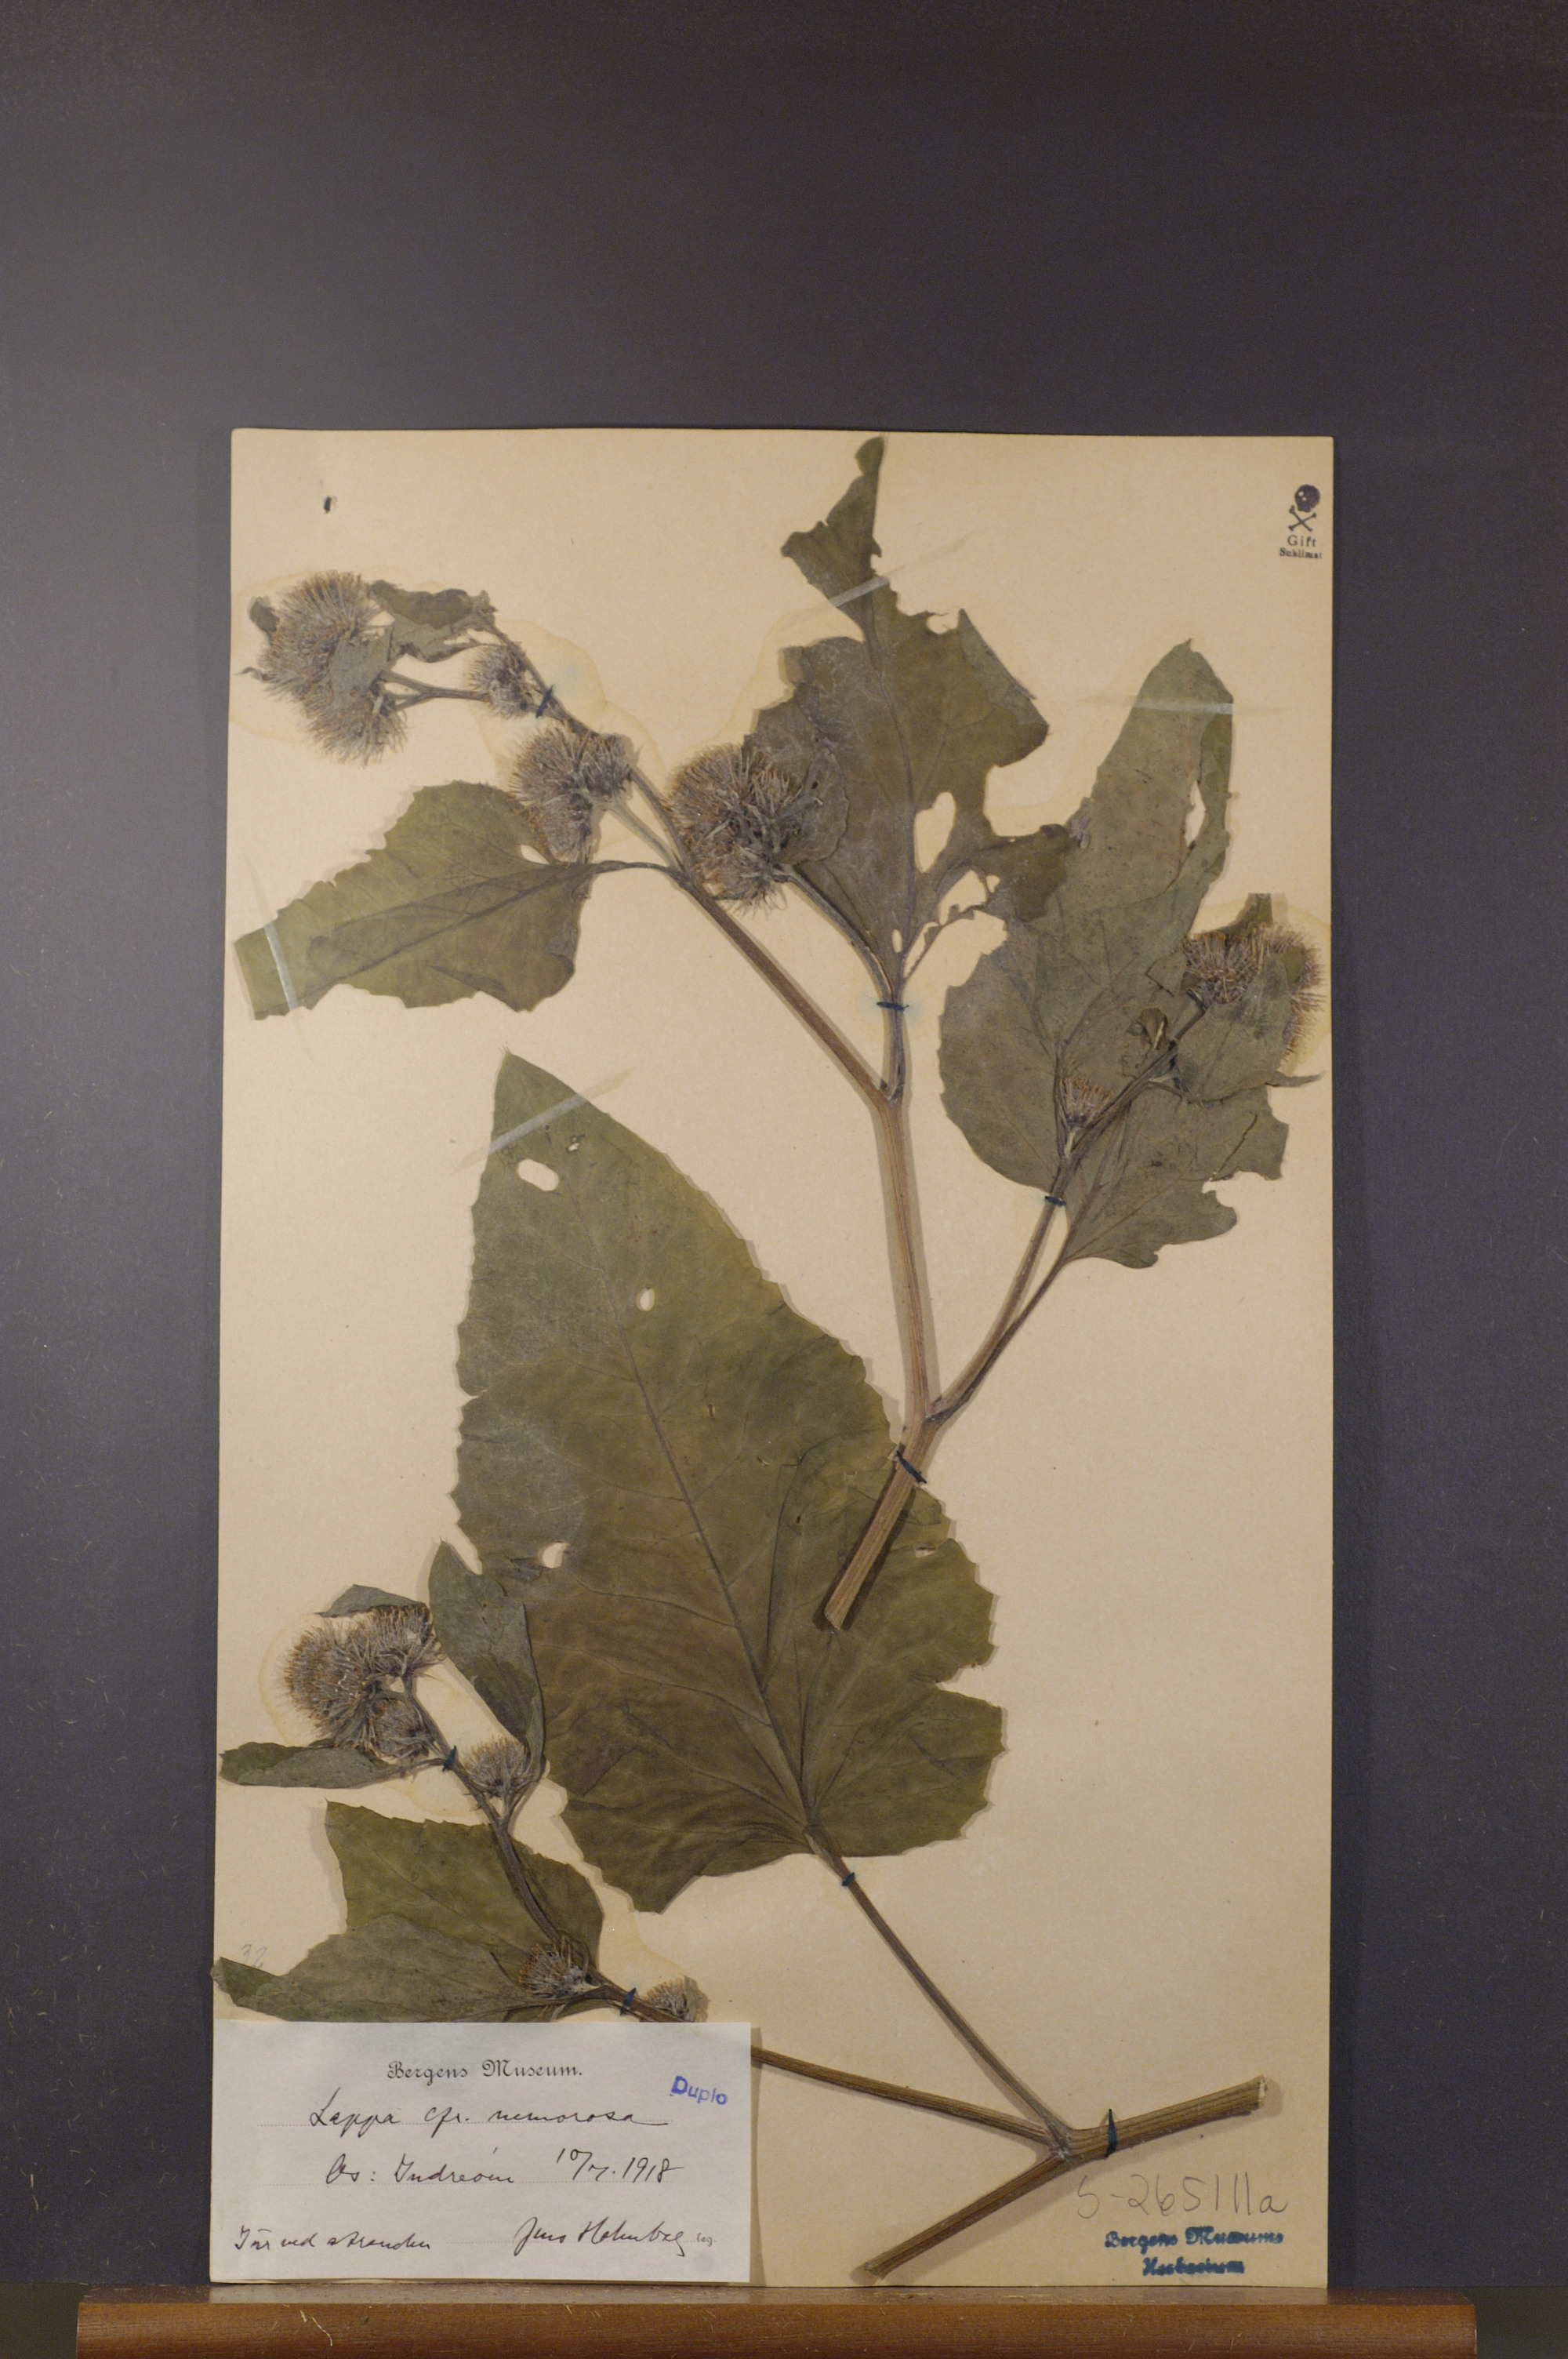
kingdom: Plantae
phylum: Tracheophyta
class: Magnoliopsida
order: Asterales
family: Asteraceae
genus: Arctium
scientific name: Arctium nemorosum
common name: Wood burdock
